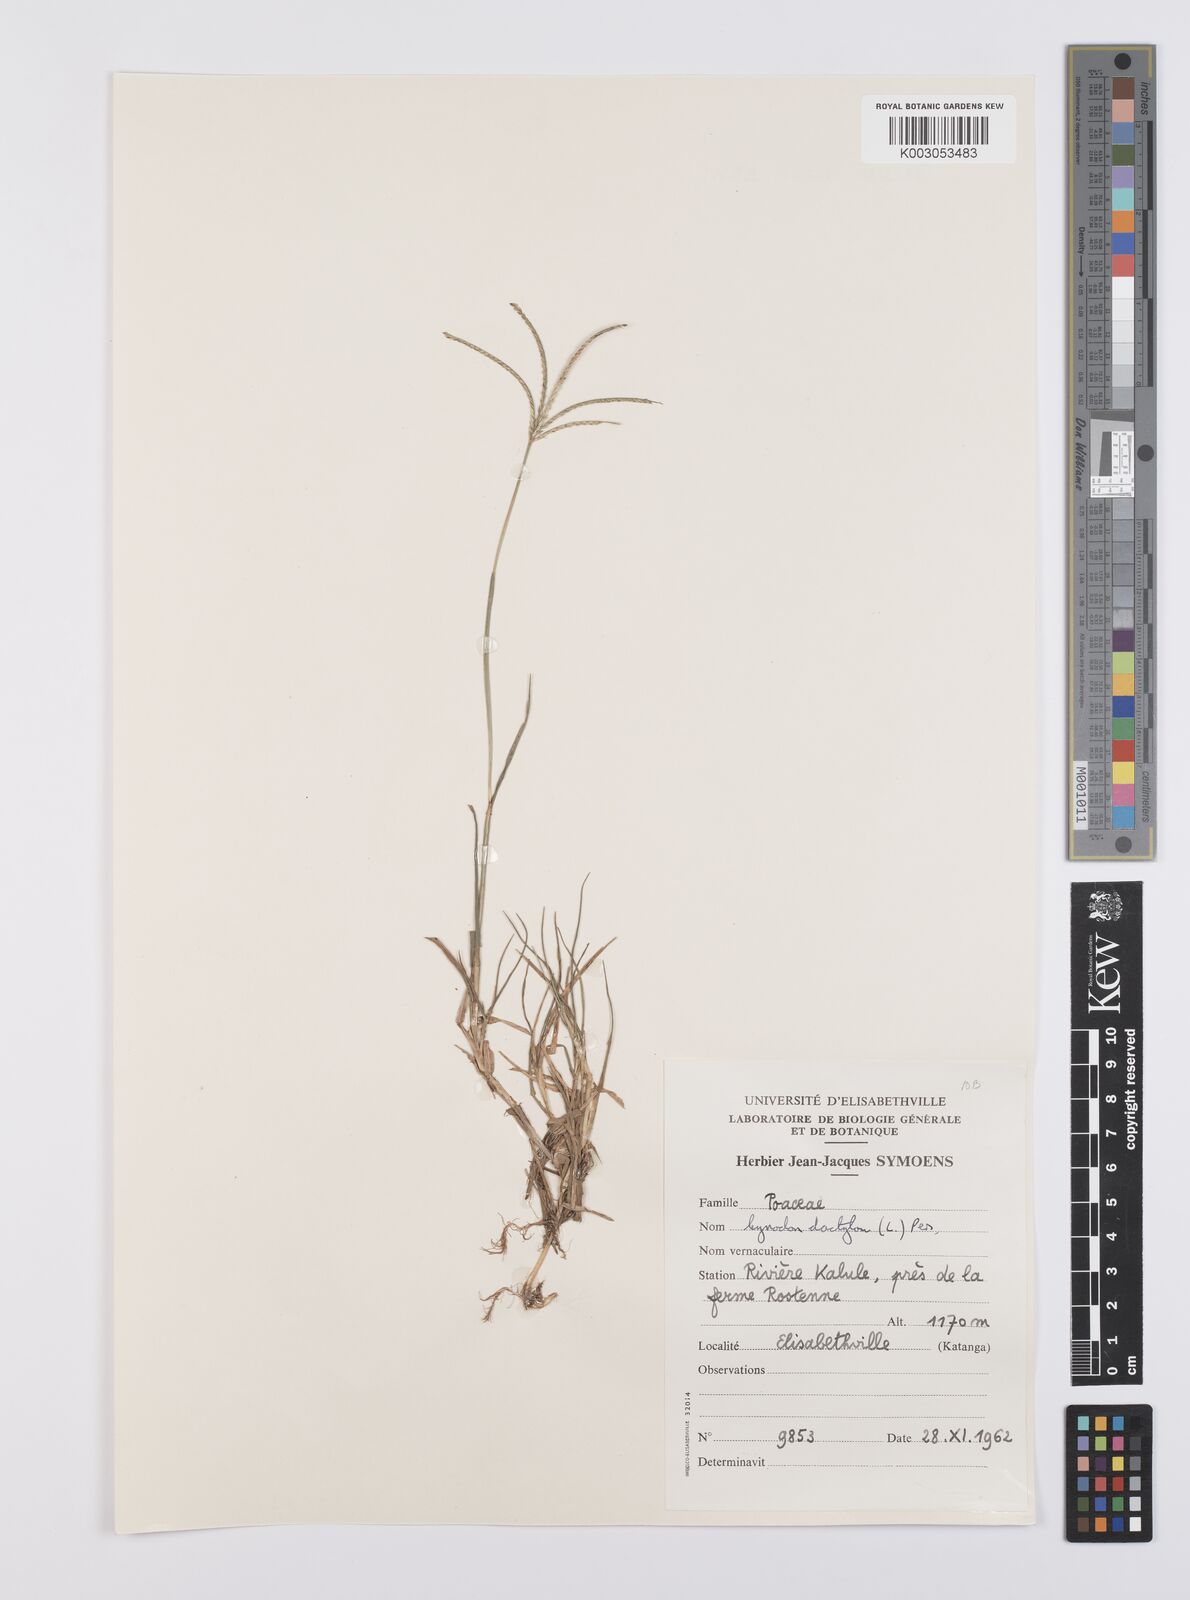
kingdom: Plantae
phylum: Tracheophyta
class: Liliopsida
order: Poales
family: Poaceae
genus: Cynodon
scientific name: Cynodon dactylon
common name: Bermuda grass
